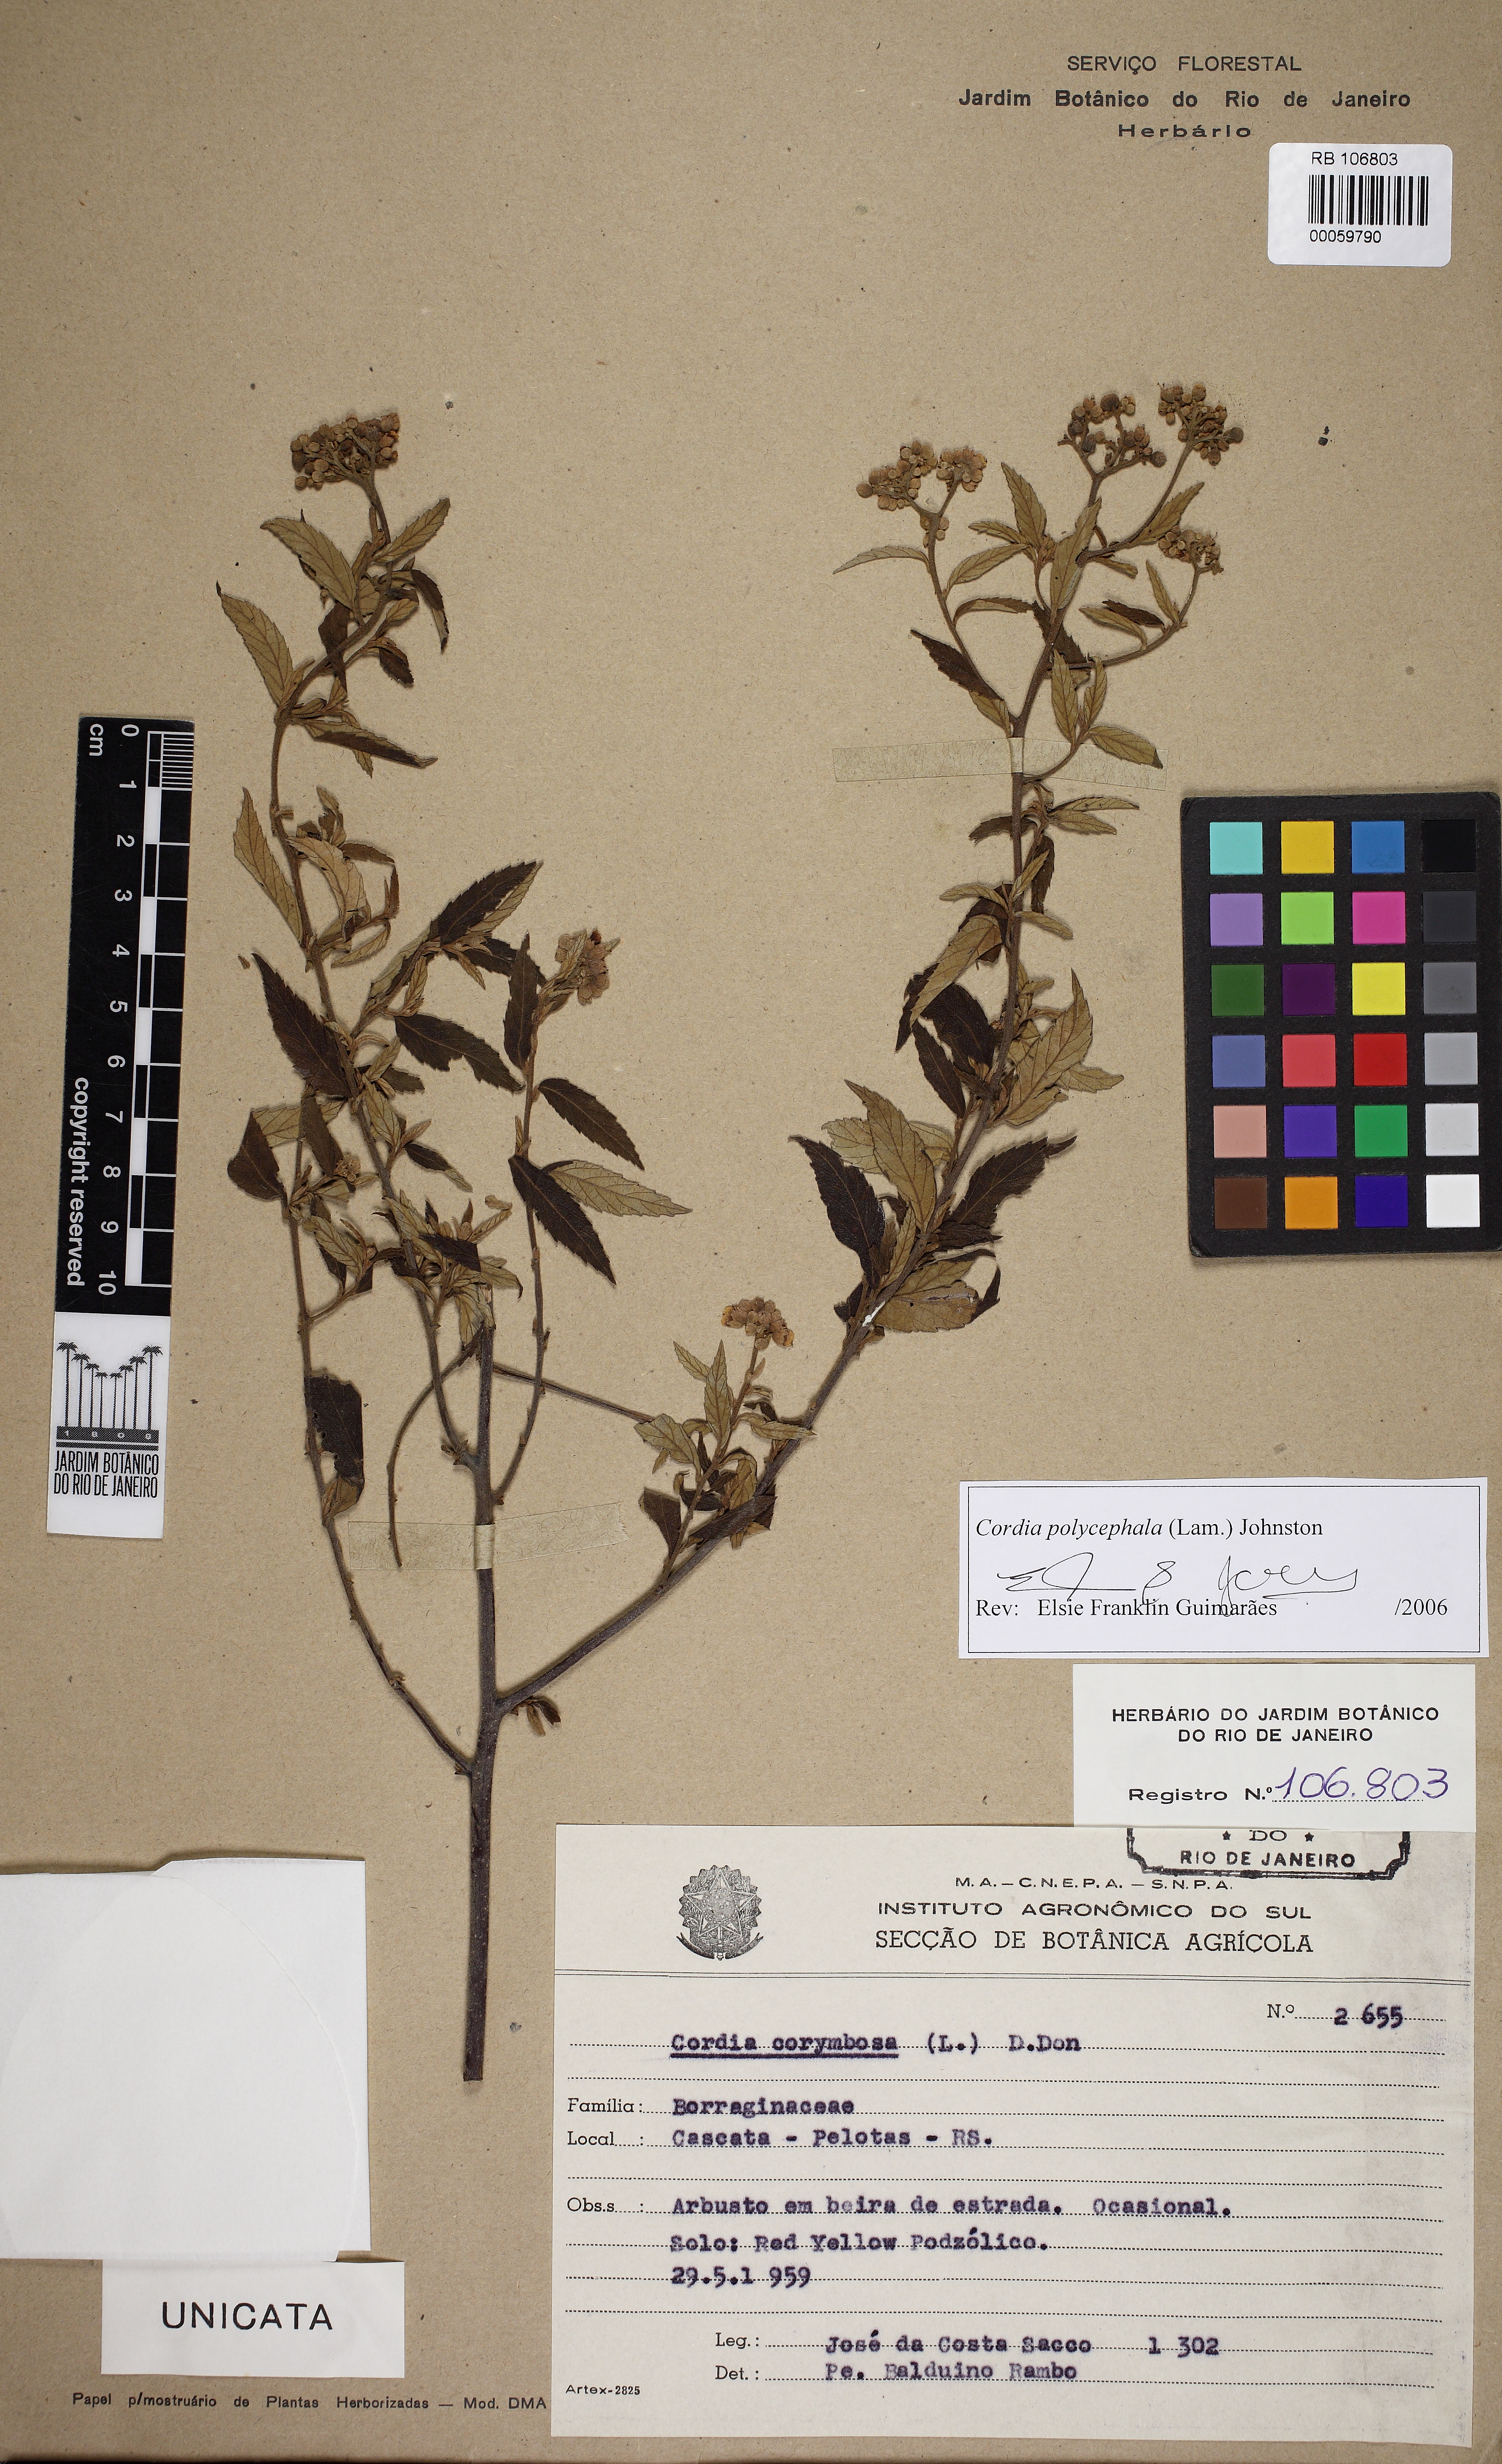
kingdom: Plantae
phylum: Tracheophyta
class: Magnoliopsida
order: Boraginales
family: Cordiaceae
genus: Varronia
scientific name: Varronia polycephala
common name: Black-sage
